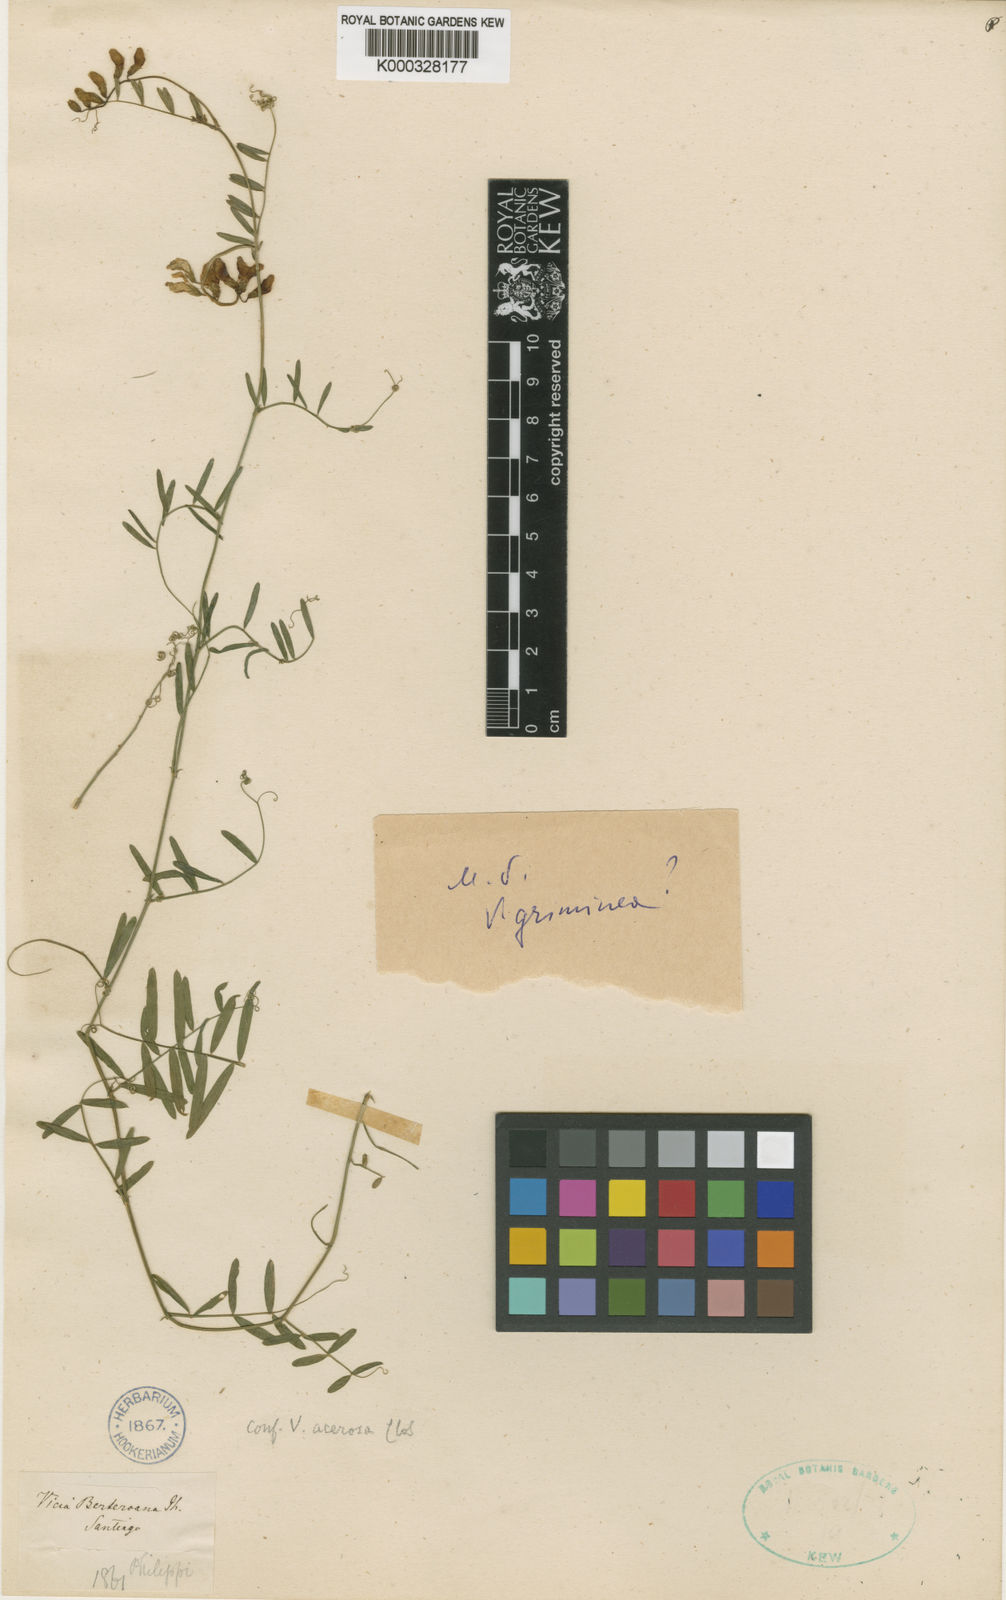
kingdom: Plantae
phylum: Tracheophyta
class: Magnoliopsida
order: Fabales
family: Fabaceae
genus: Vicia
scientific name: Vicia berteroana
